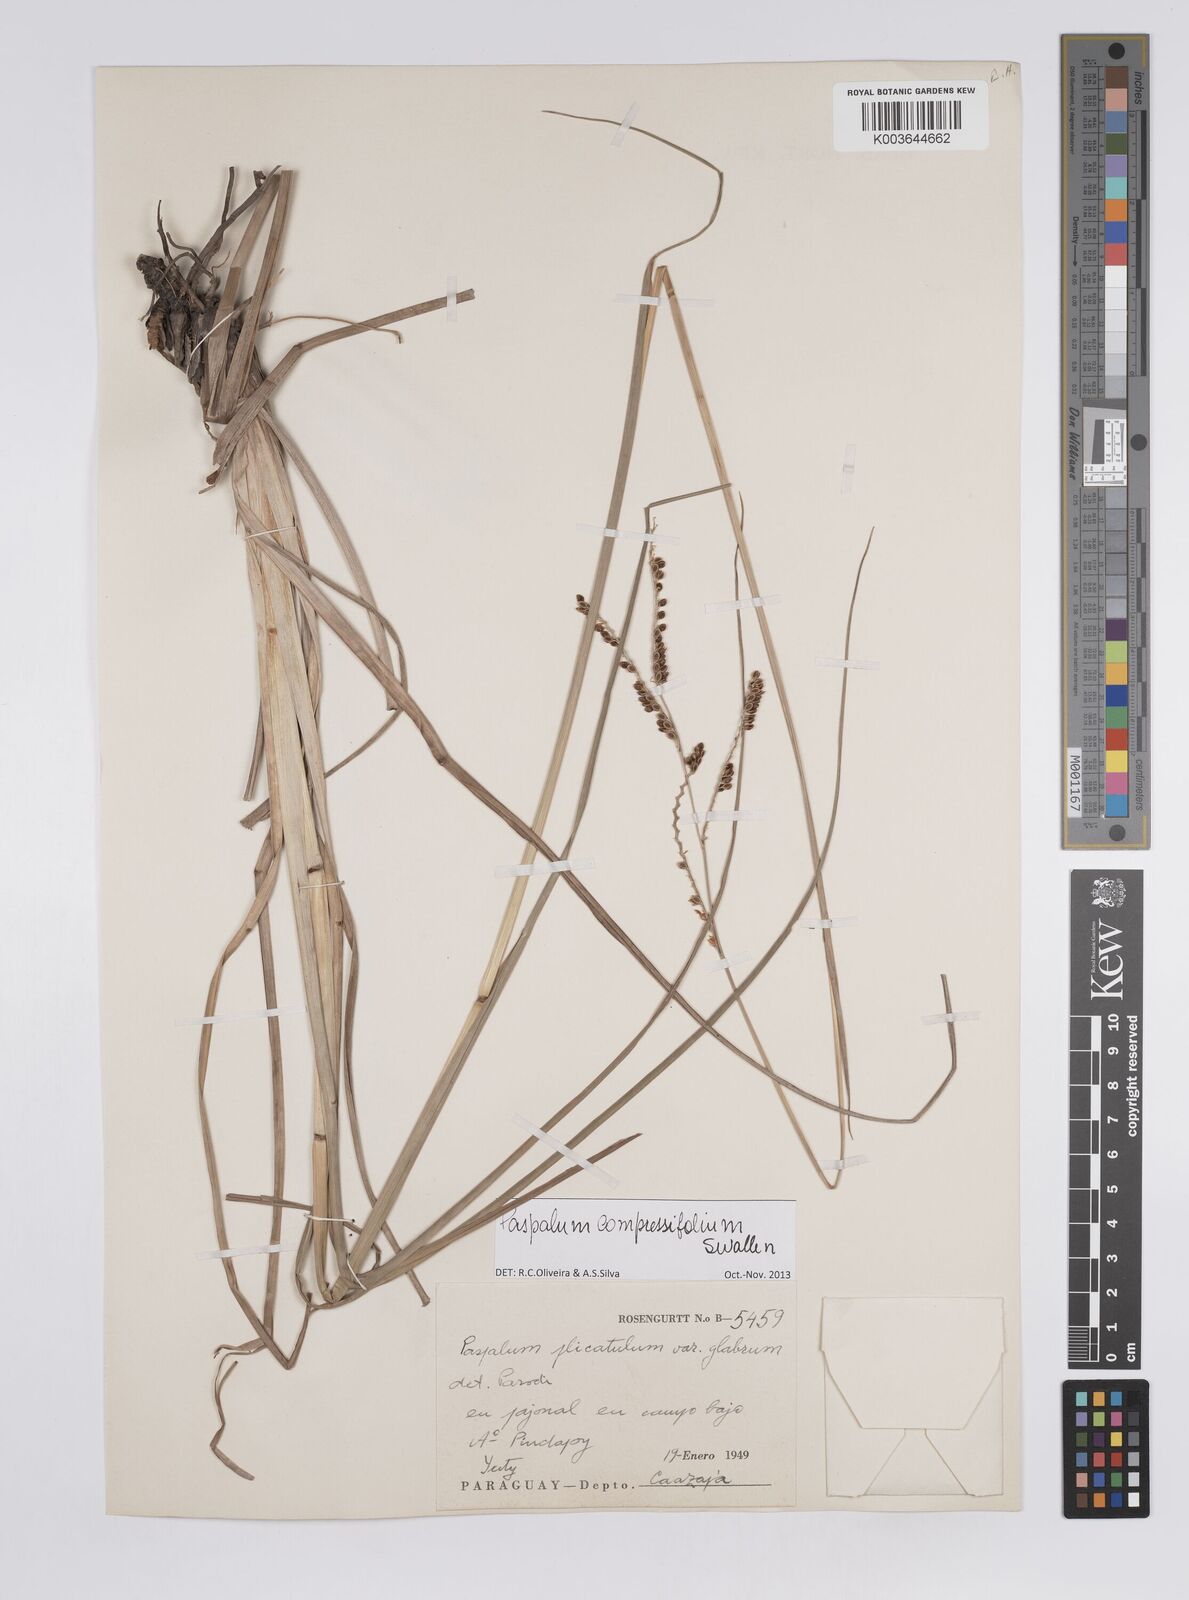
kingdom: Plantae
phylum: Tracheophyta
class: Liliopsida
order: Poales
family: Poaceae
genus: Paspalum
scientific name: Paspalum plicatulum
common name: Top paspalum
